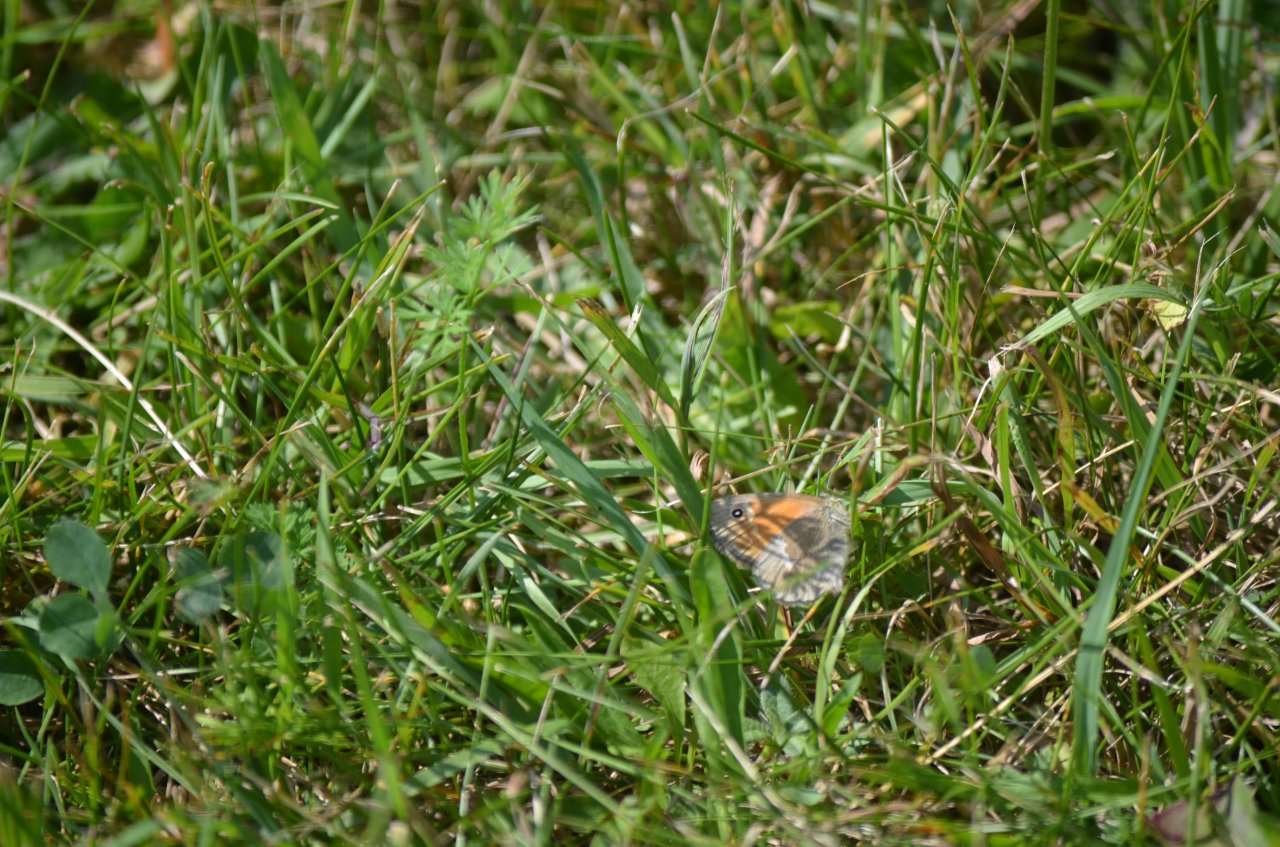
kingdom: Animalia
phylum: Arthropoda
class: Insecta
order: Lepidoptera
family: Nymphalidae
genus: Coenonympha
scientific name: Coenonympha tullia
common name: Large Heath
